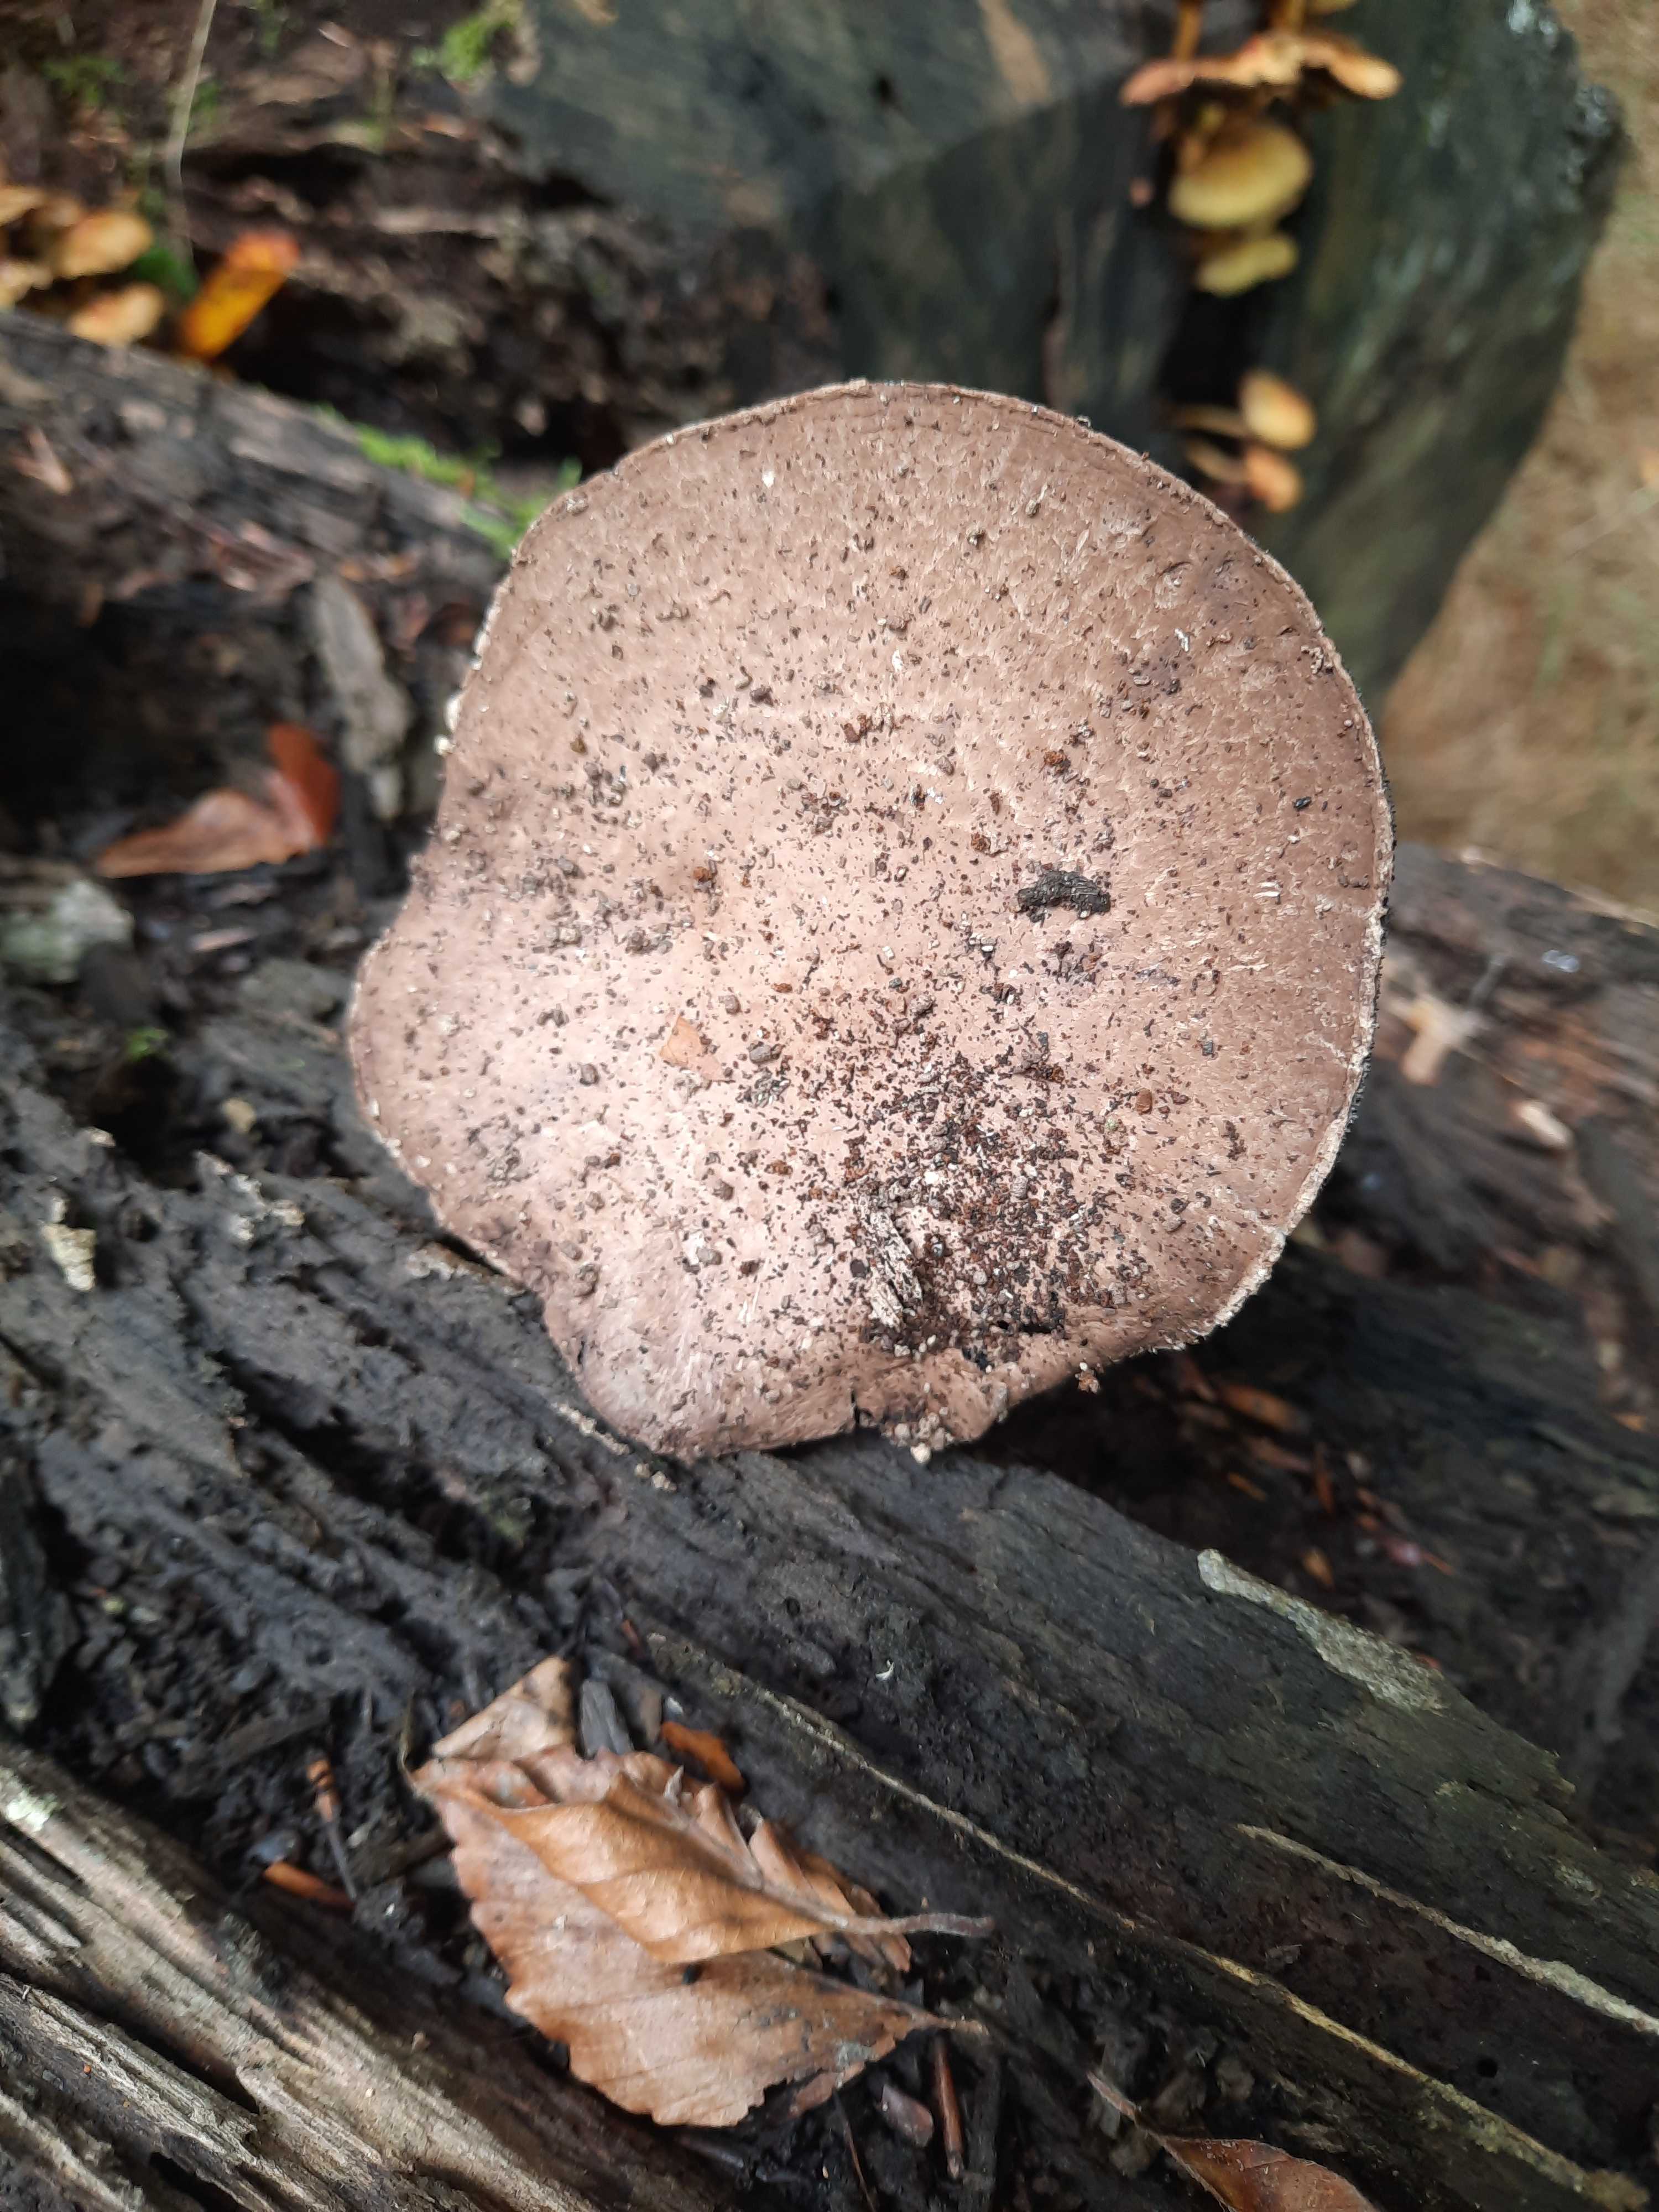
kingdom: Fungi
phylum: Basidiomycota
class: Agaricomycetes
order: Agaricales
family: Agaricaceae
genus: Agaricus
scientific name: Agaricus
